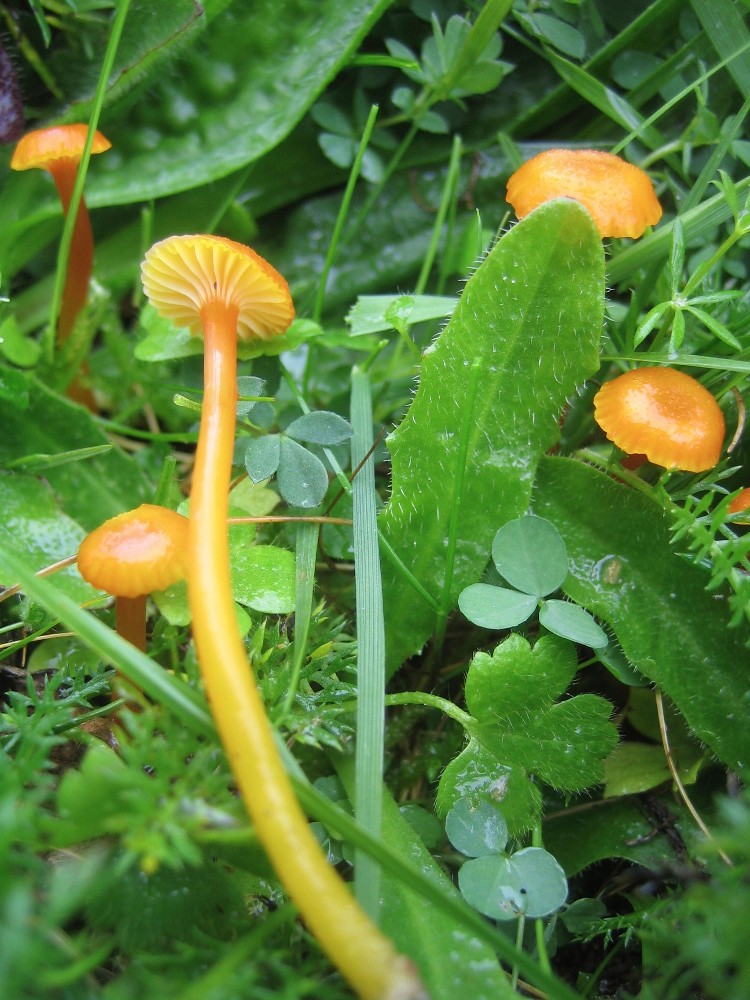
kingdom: Fungi
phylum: Basidiomycota
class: Agaricomycetes
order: Agaricales
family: Hygrophoraceae
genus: Hygrocybe
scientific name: Hygrocybe insipida
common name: liden vokshat
